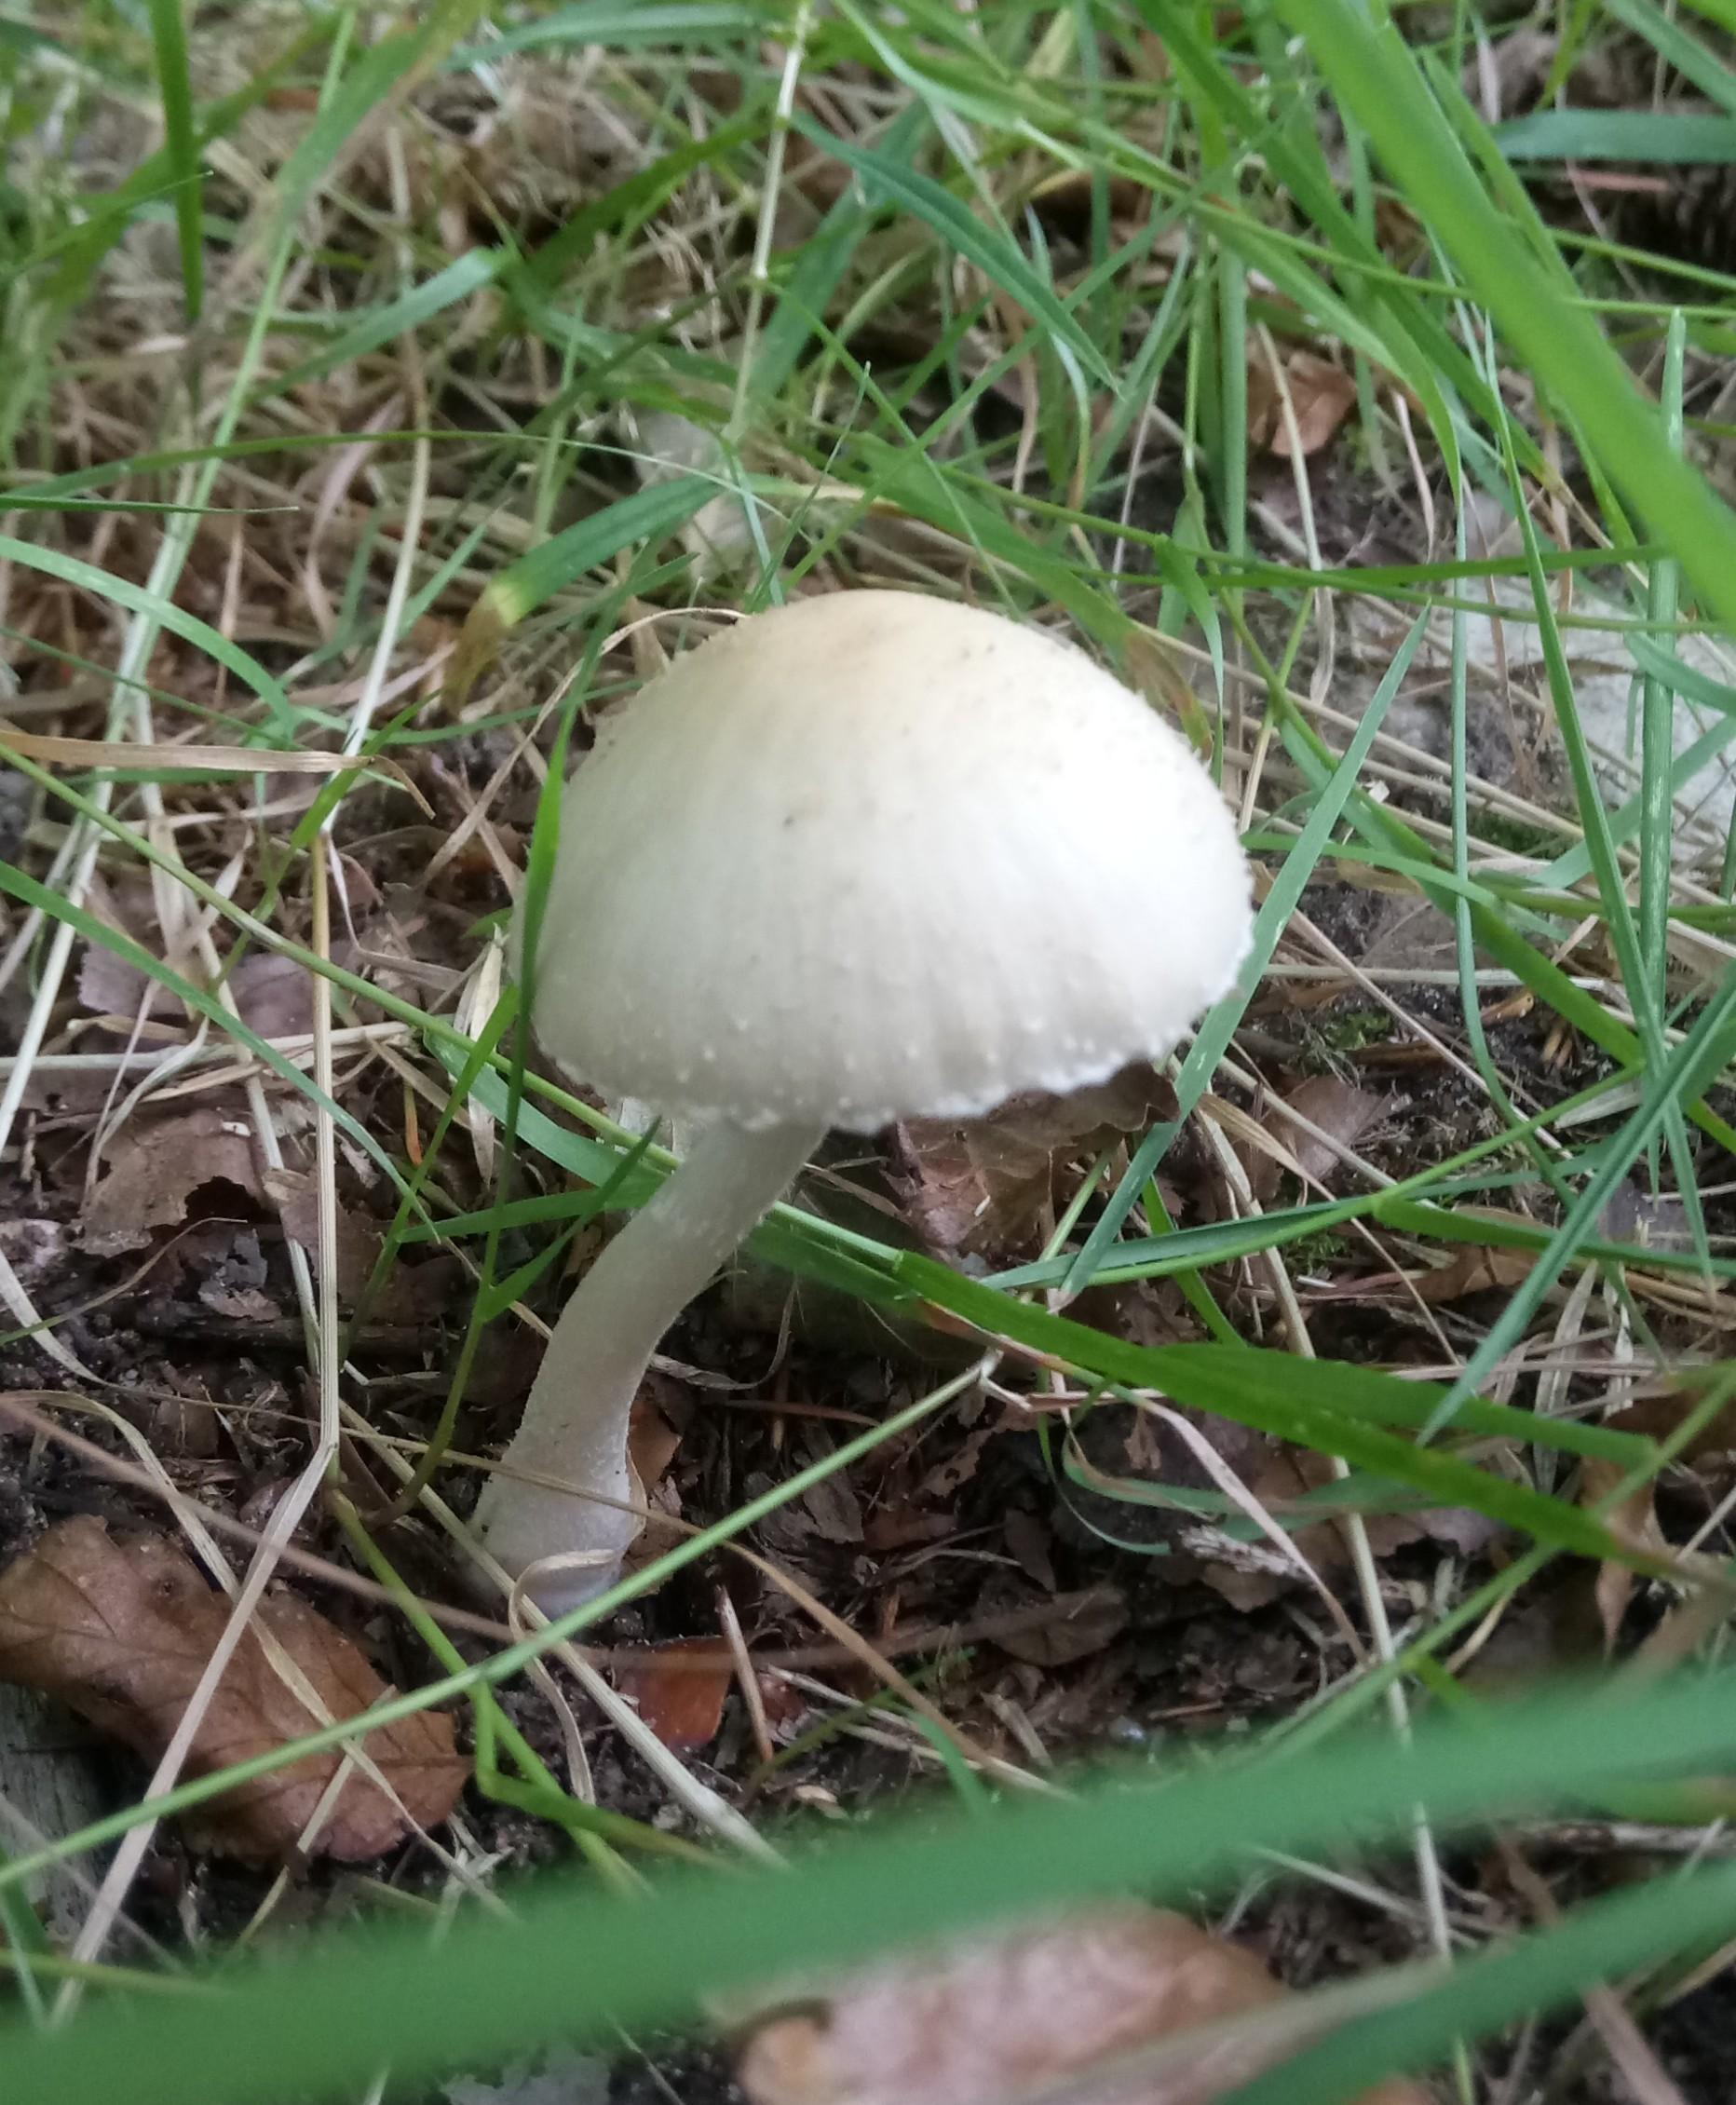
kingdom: Fungi
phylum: Basidiomycota
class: Agaricomycetes
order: Agaricales
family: Psathyrellaceae
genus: Candolleomyces
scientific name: Candolleomyces candolleanus
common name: Candolles mørkhat
